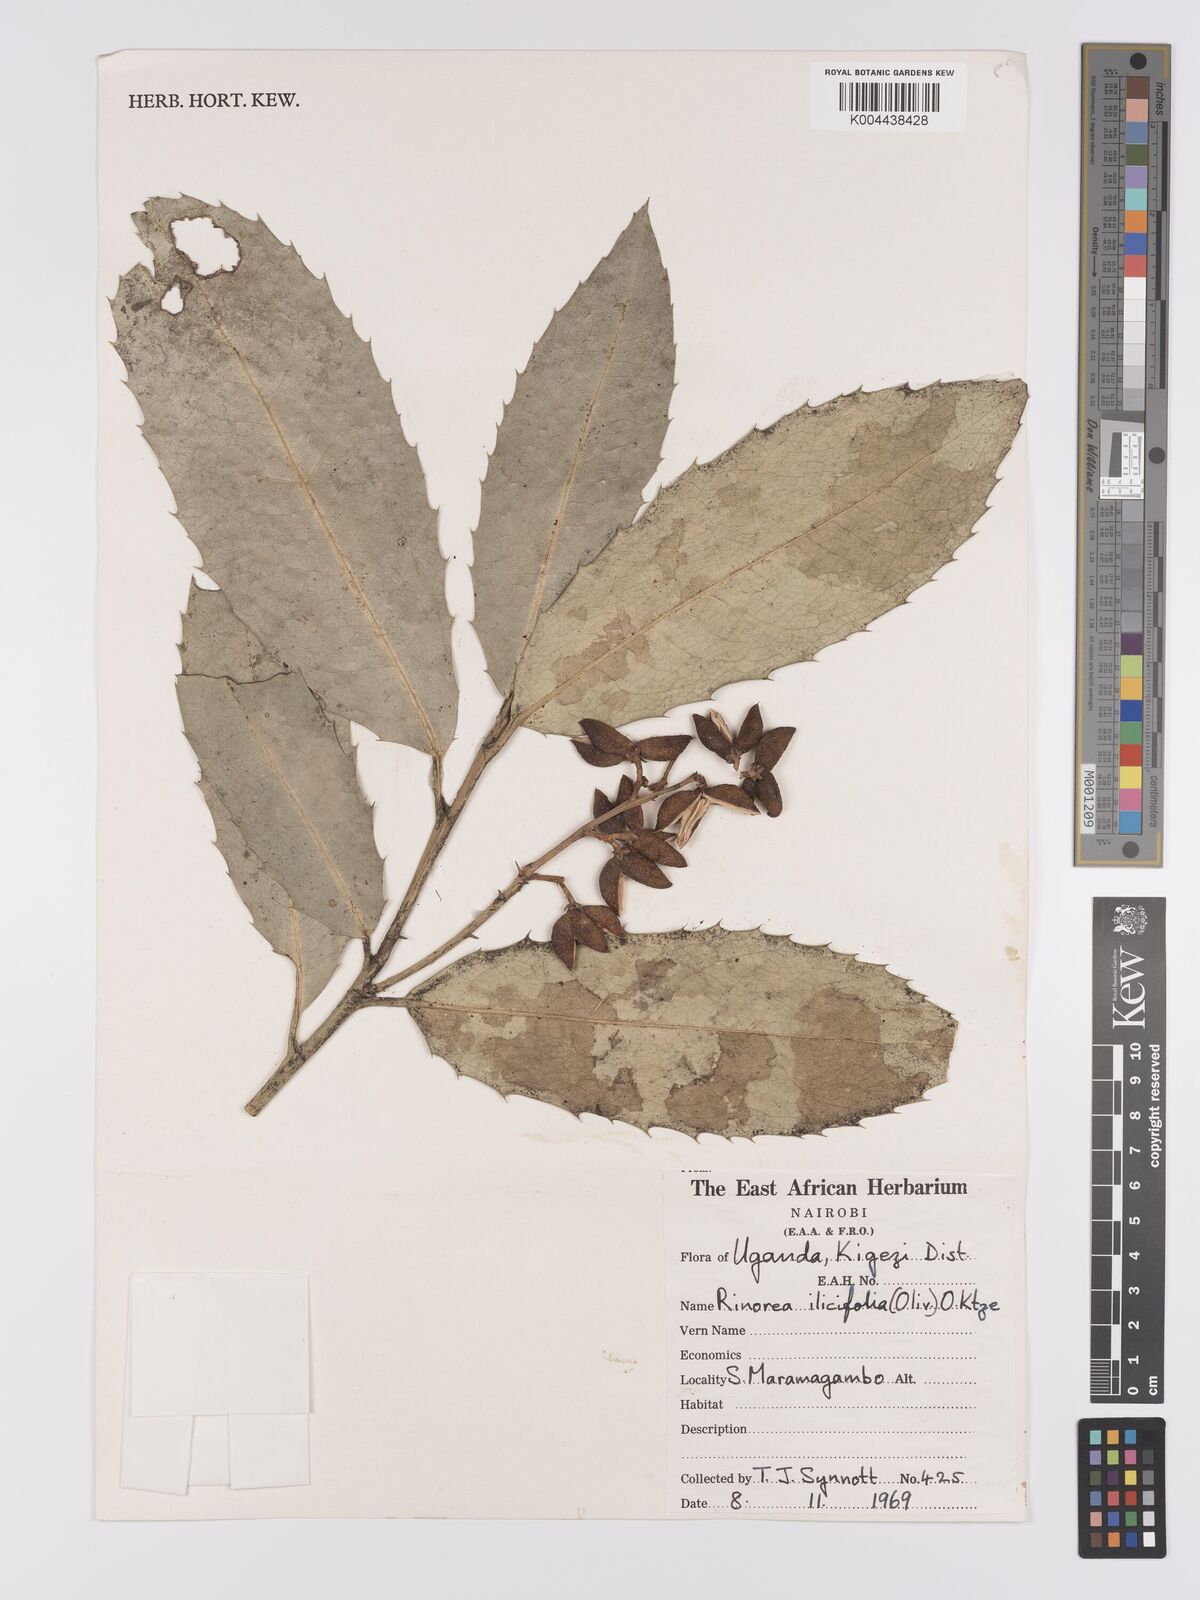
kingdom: Plantae
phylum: Tracheophyta
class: Magnoliopsida
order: Malpighiales
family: Violaceae
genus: Rinorea
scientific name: Rinorea ilicifolia
